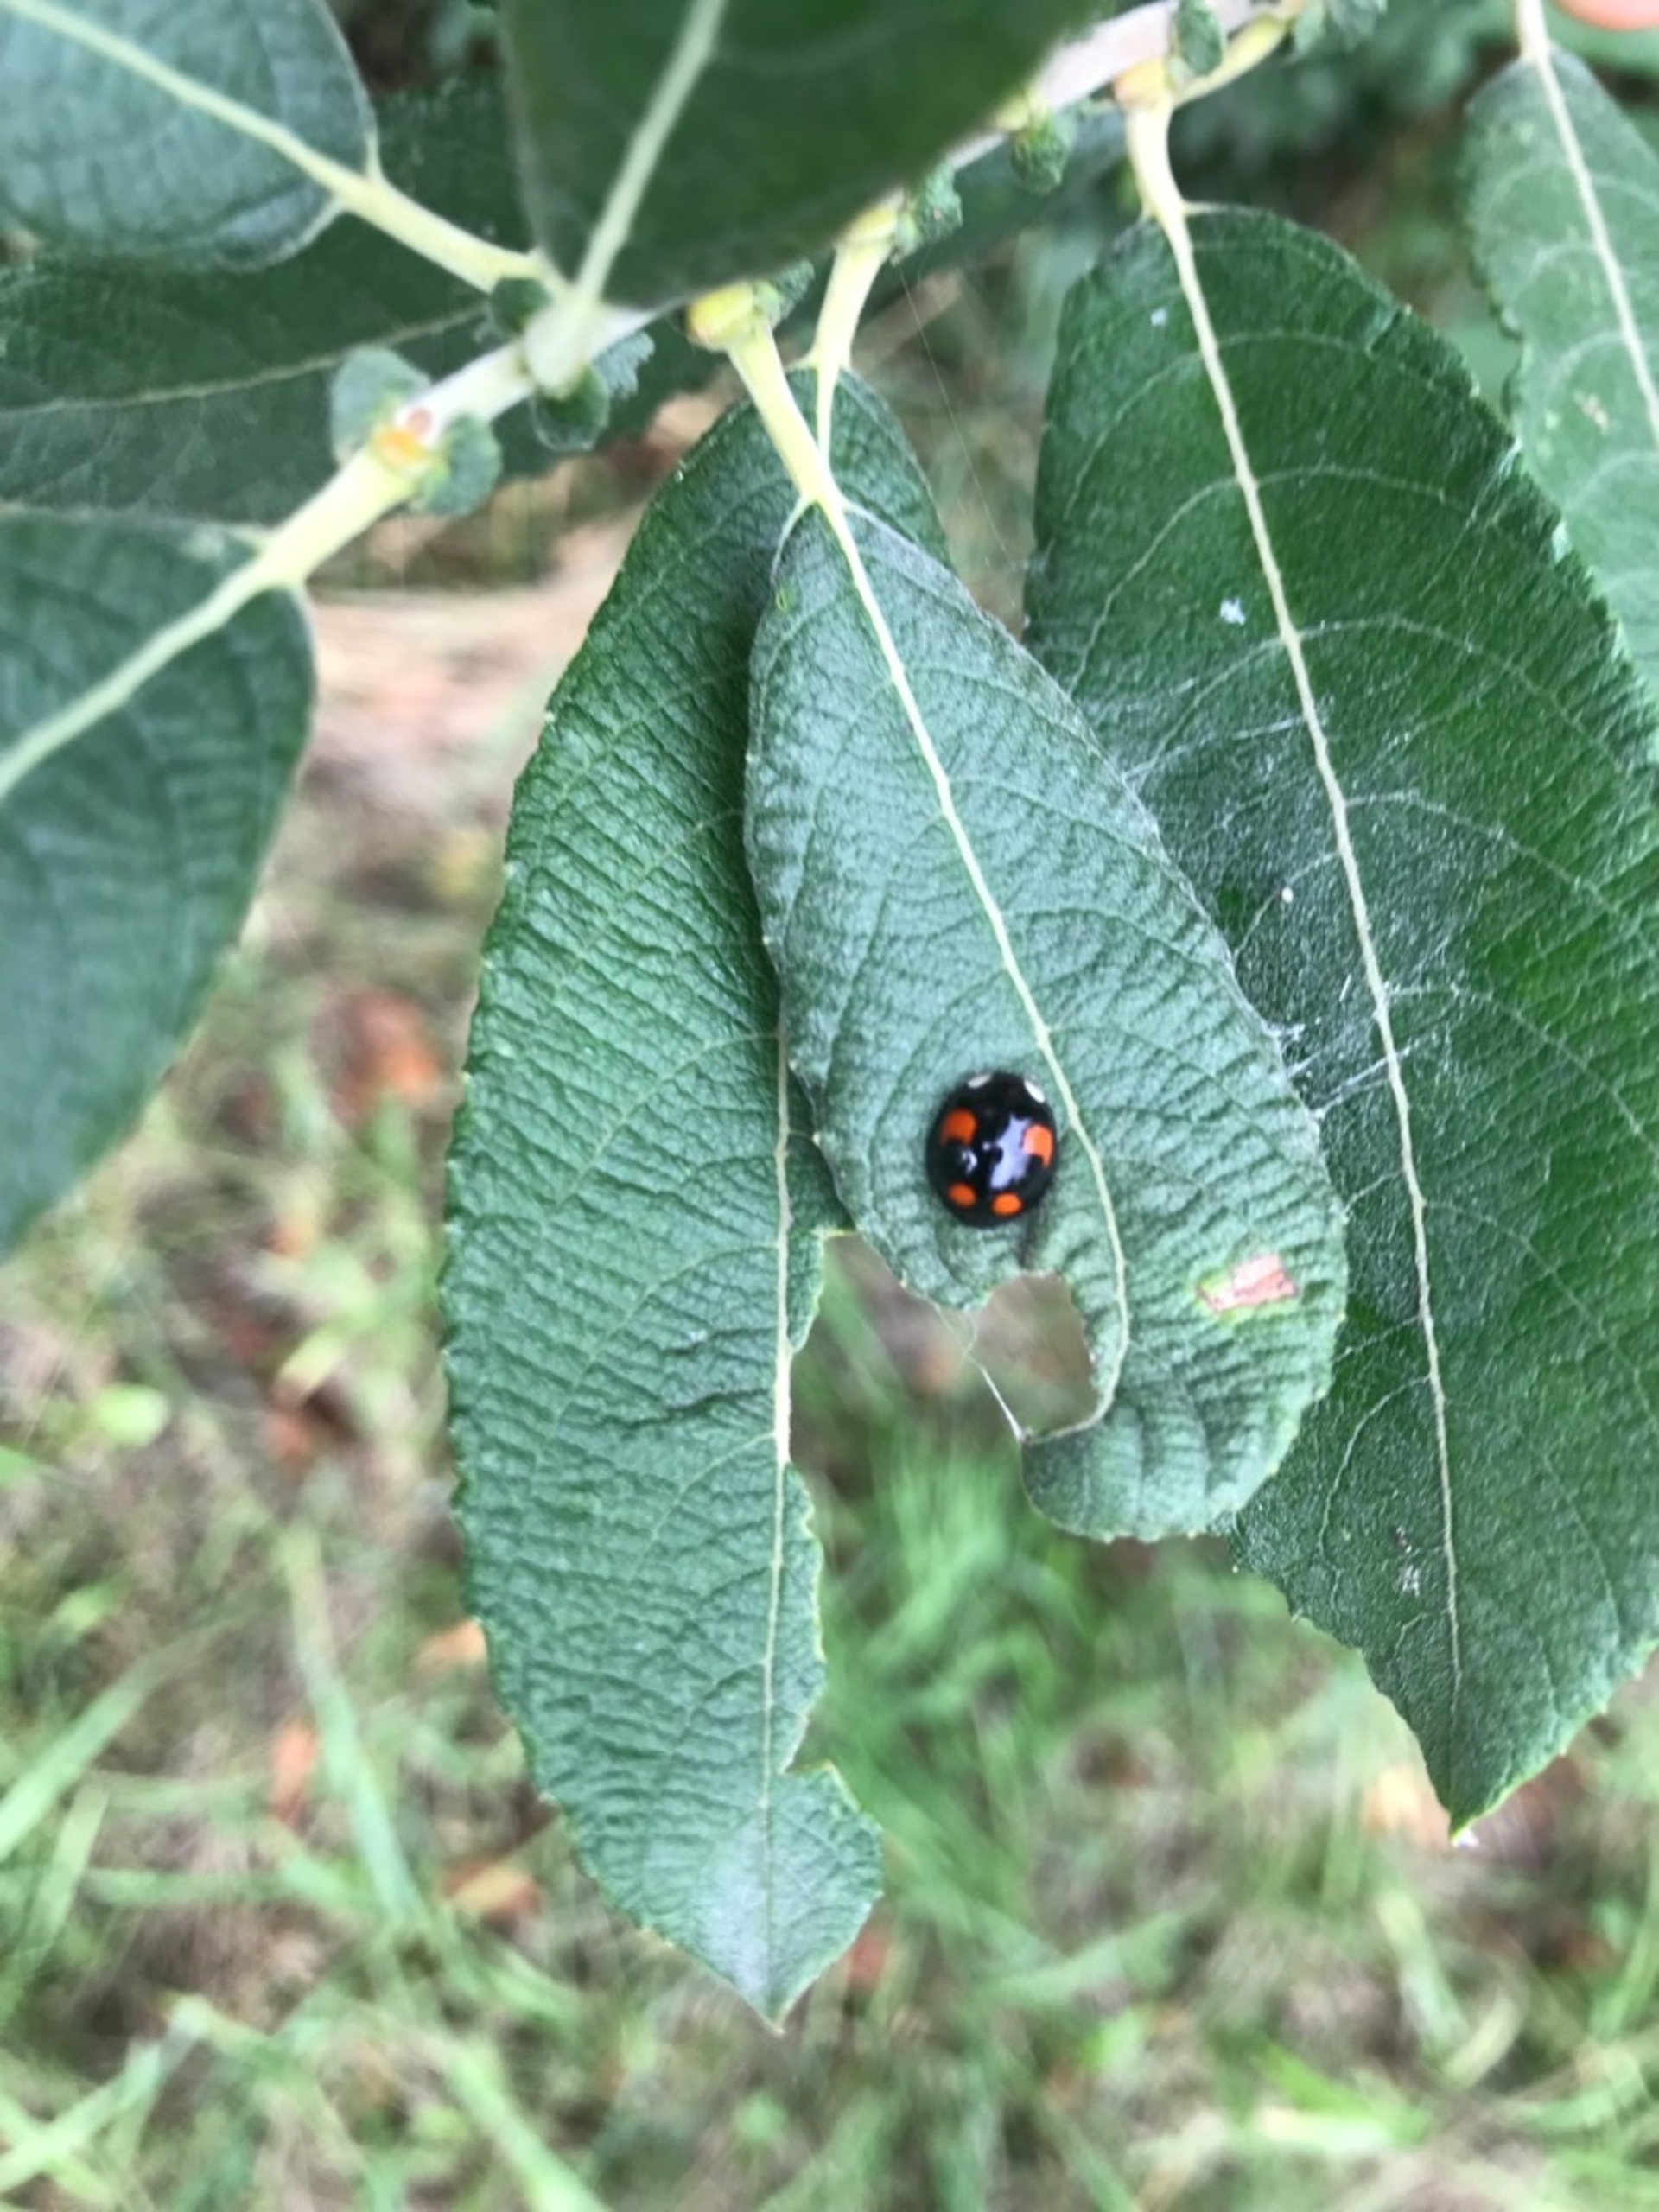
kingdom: Animalia
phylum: Arthropoda
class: Insecta
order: Coleoptera
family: Coccinellidae
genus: Harmonia
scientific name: Harmonia axyridis
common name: Harlekinmariehøne
